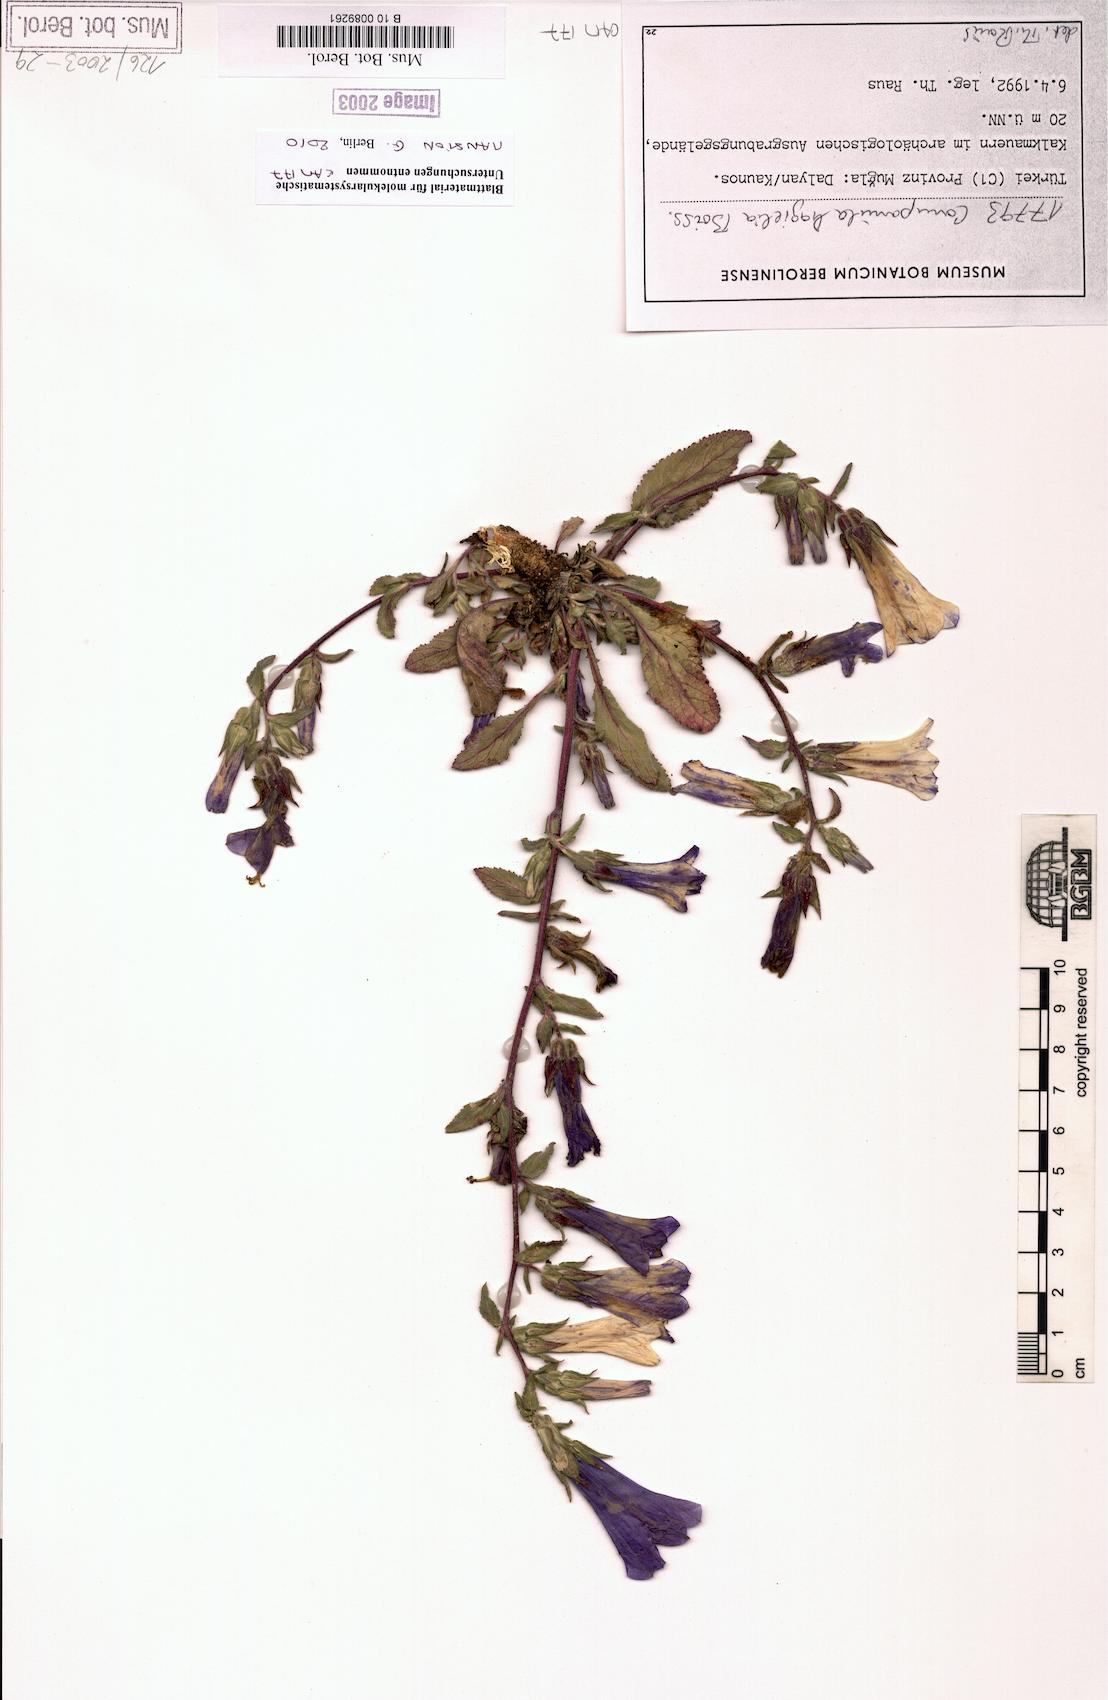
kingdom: Plantae
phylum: Tracheophyta
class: Magnoliopsida
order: Asterales
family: Campanulaceae
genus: Campanula
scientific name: Campanula hagielia
